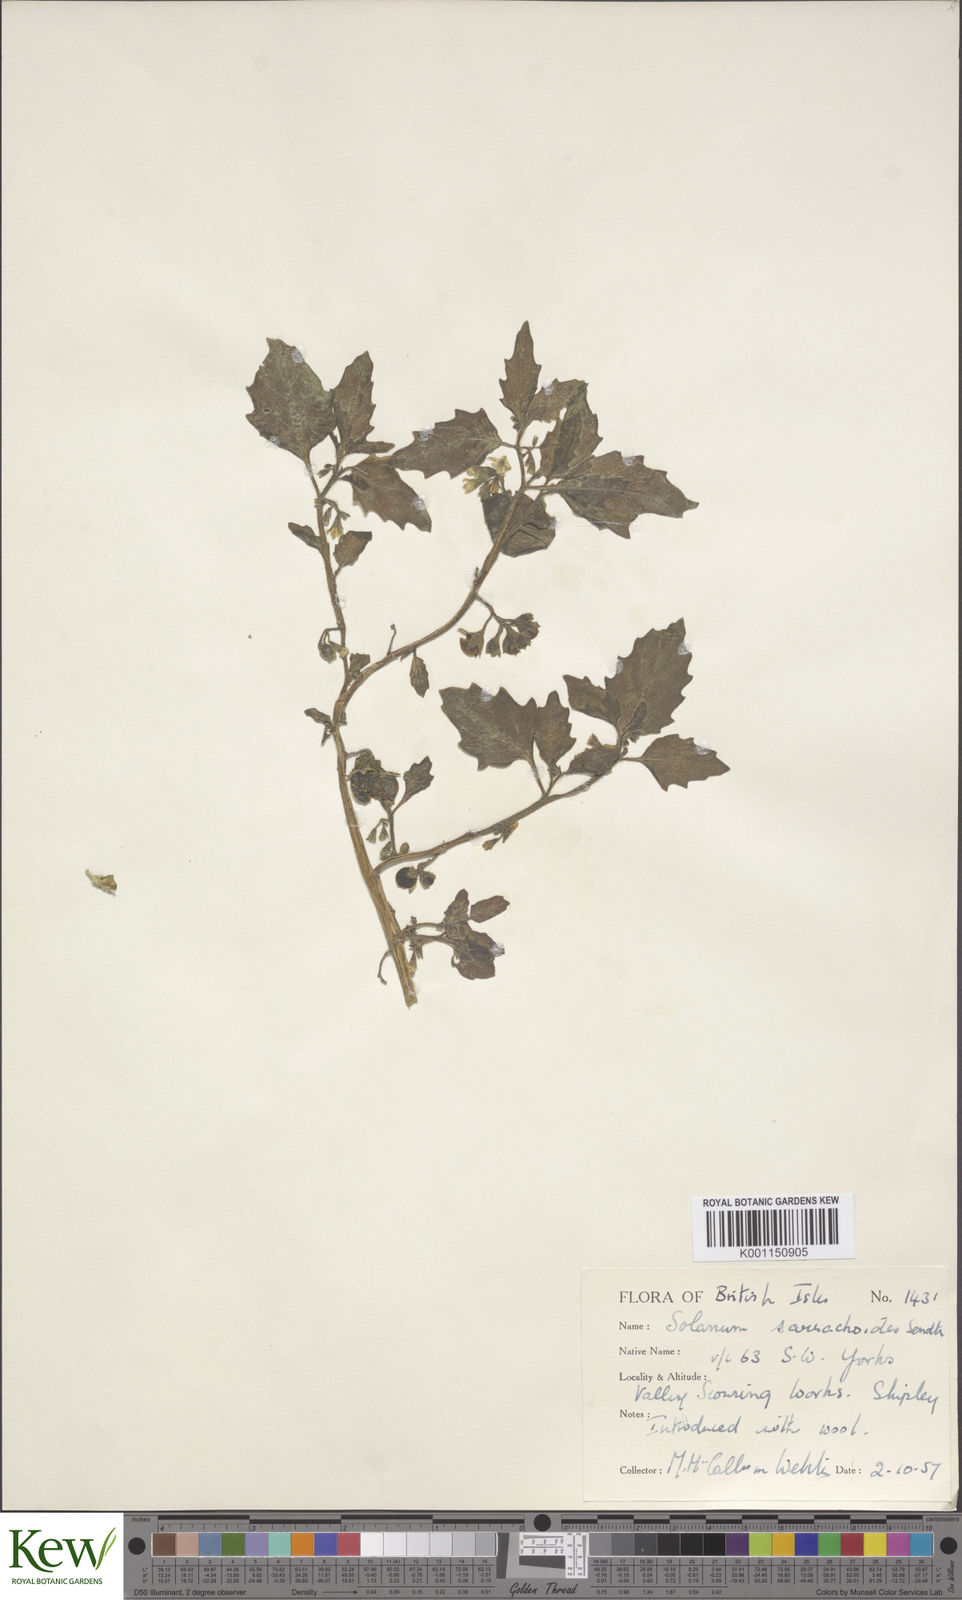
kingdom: Plantae
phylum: Tracheophyta
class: Magnoliopsida
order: Solanales
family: Solanaceae
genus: Solanum
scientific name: Solanum nitidibaccatum
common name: Hairy nightshade
